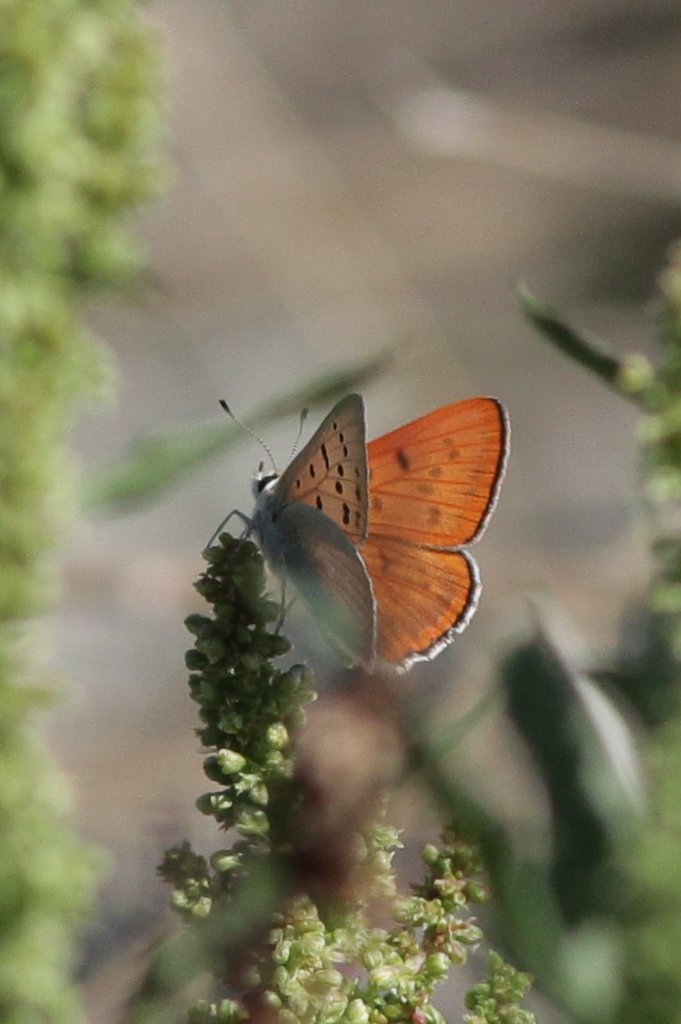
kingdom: Animalia
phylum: Arthropoda
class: Insecta
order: Lepidoptera
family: Sesiidae
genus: Sesia
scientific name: Sesia Lycaena rubidus
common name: Ruddy Copper
